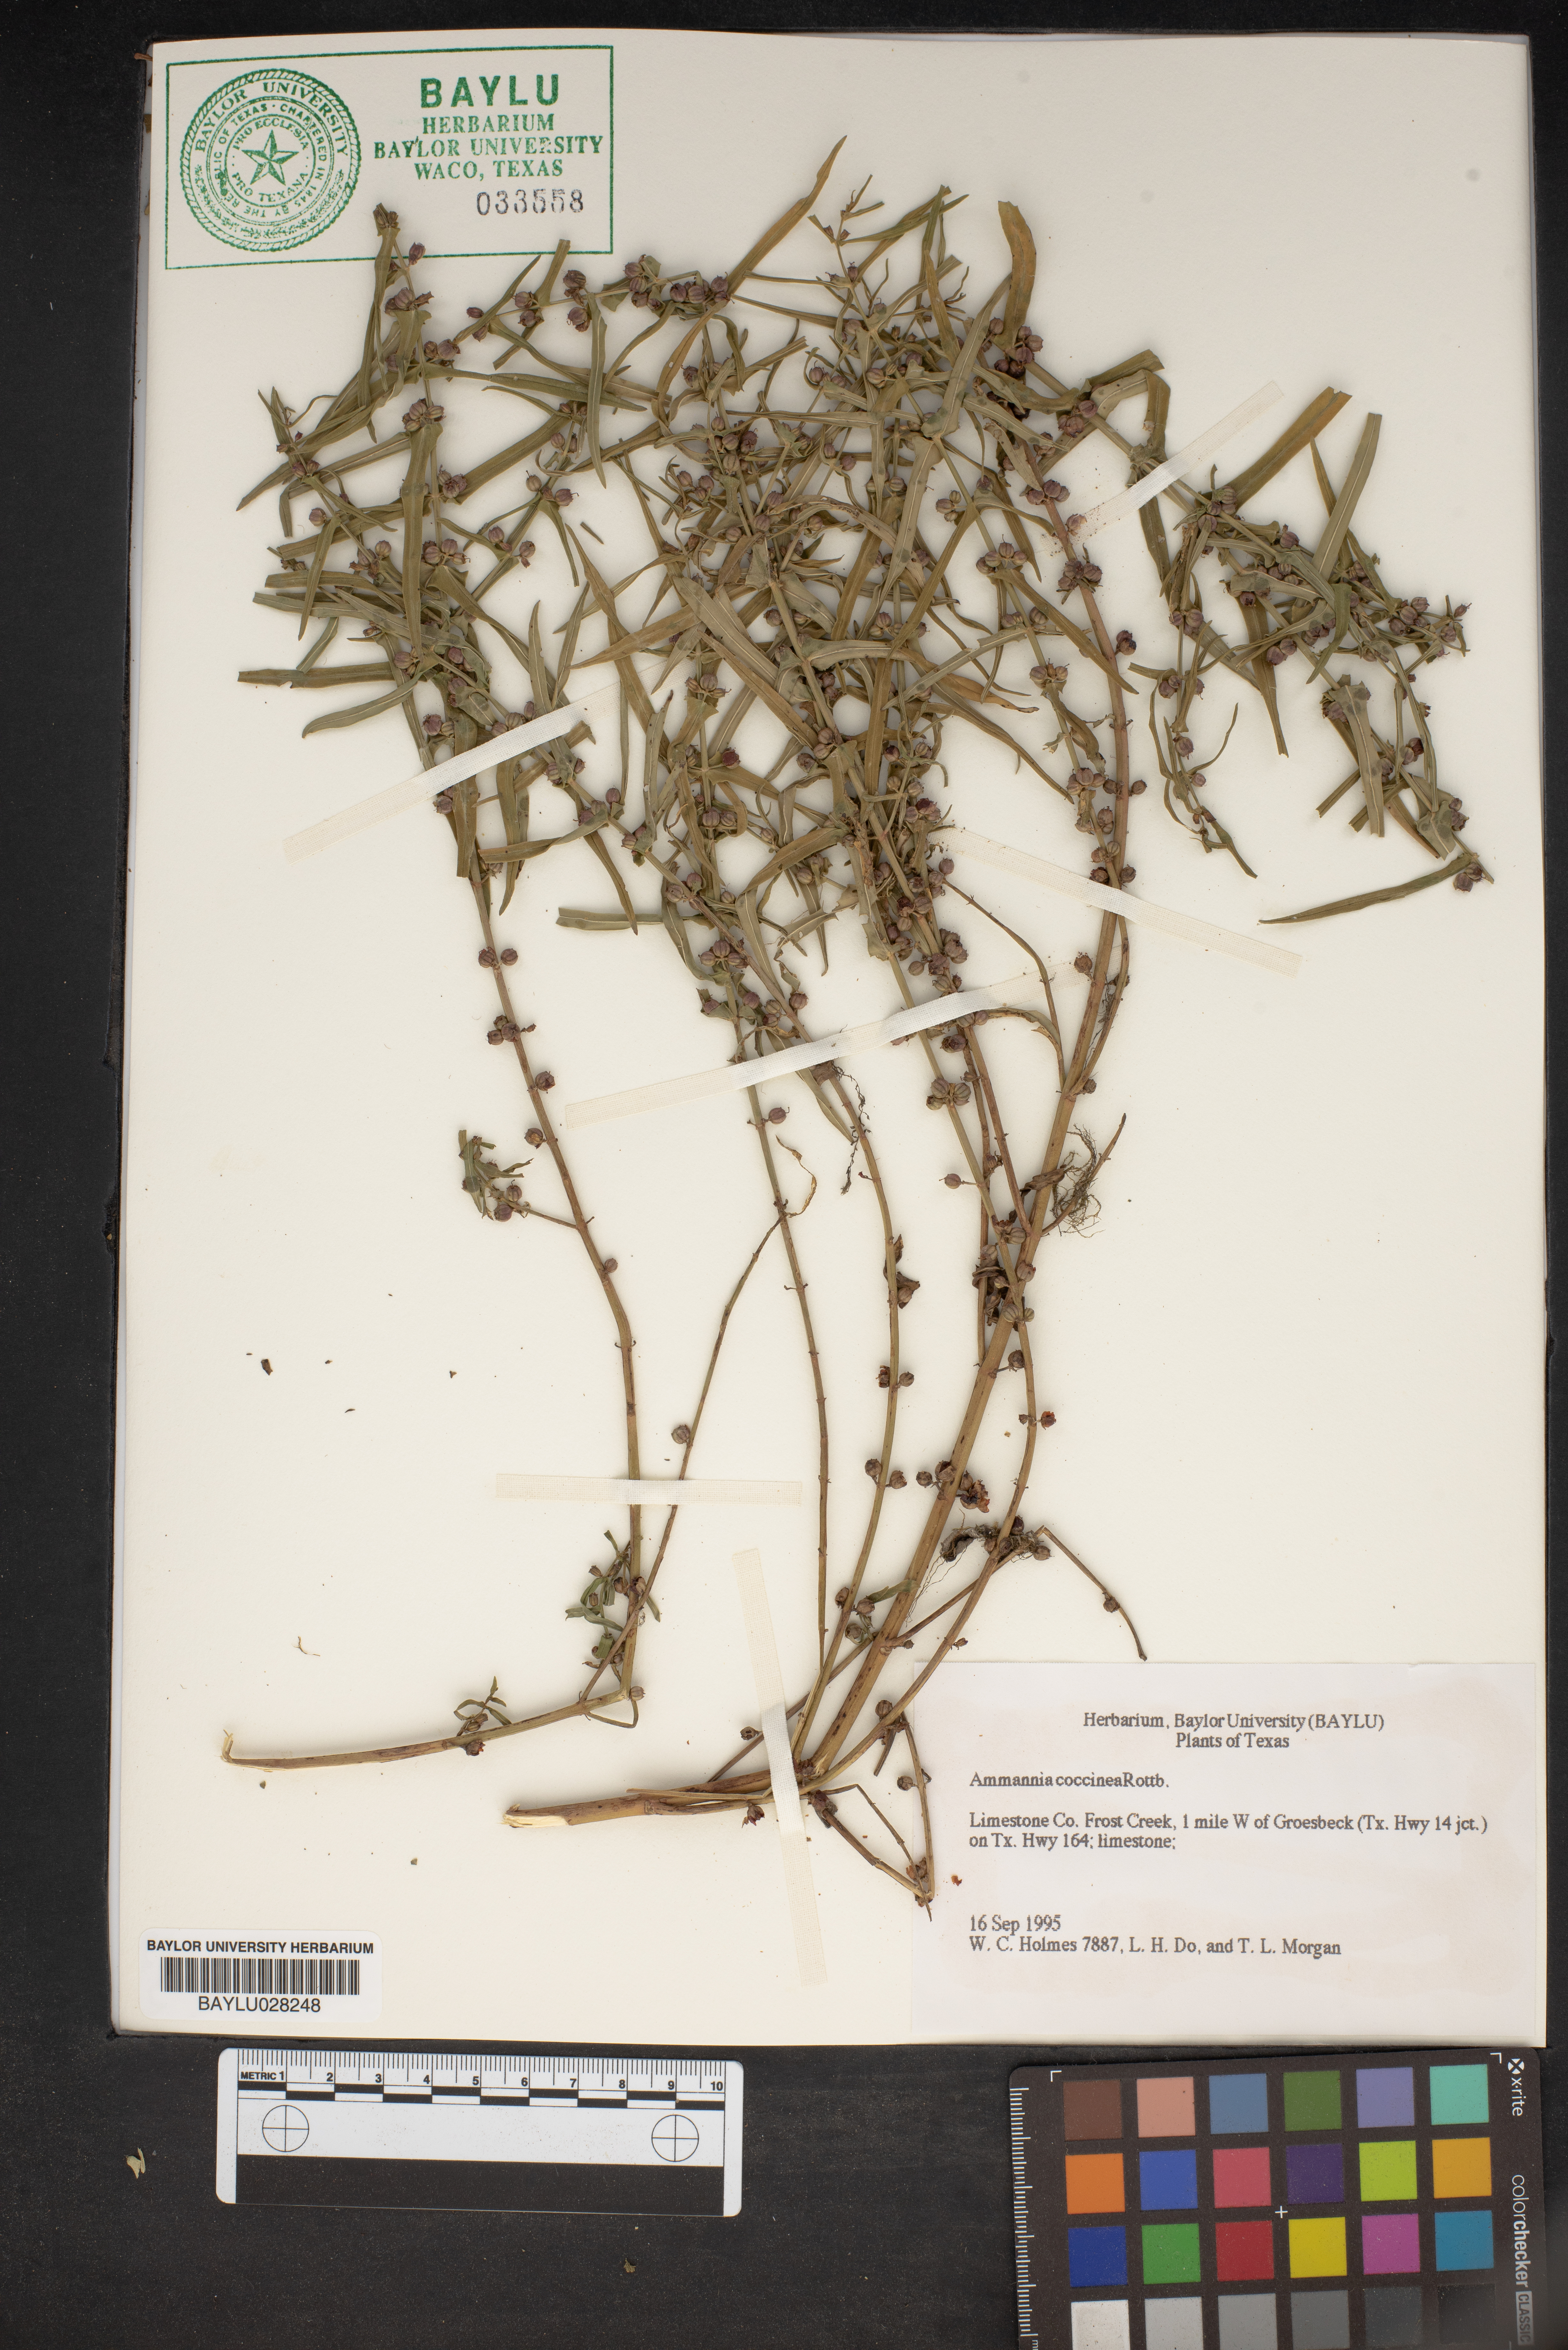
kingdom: Plantae
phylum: Tracheophyta
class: Magnoliopsida
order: Myrtales
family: Lythraceae
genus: Ammannia
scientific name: Ammannia coccinea
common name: Valley redstem
